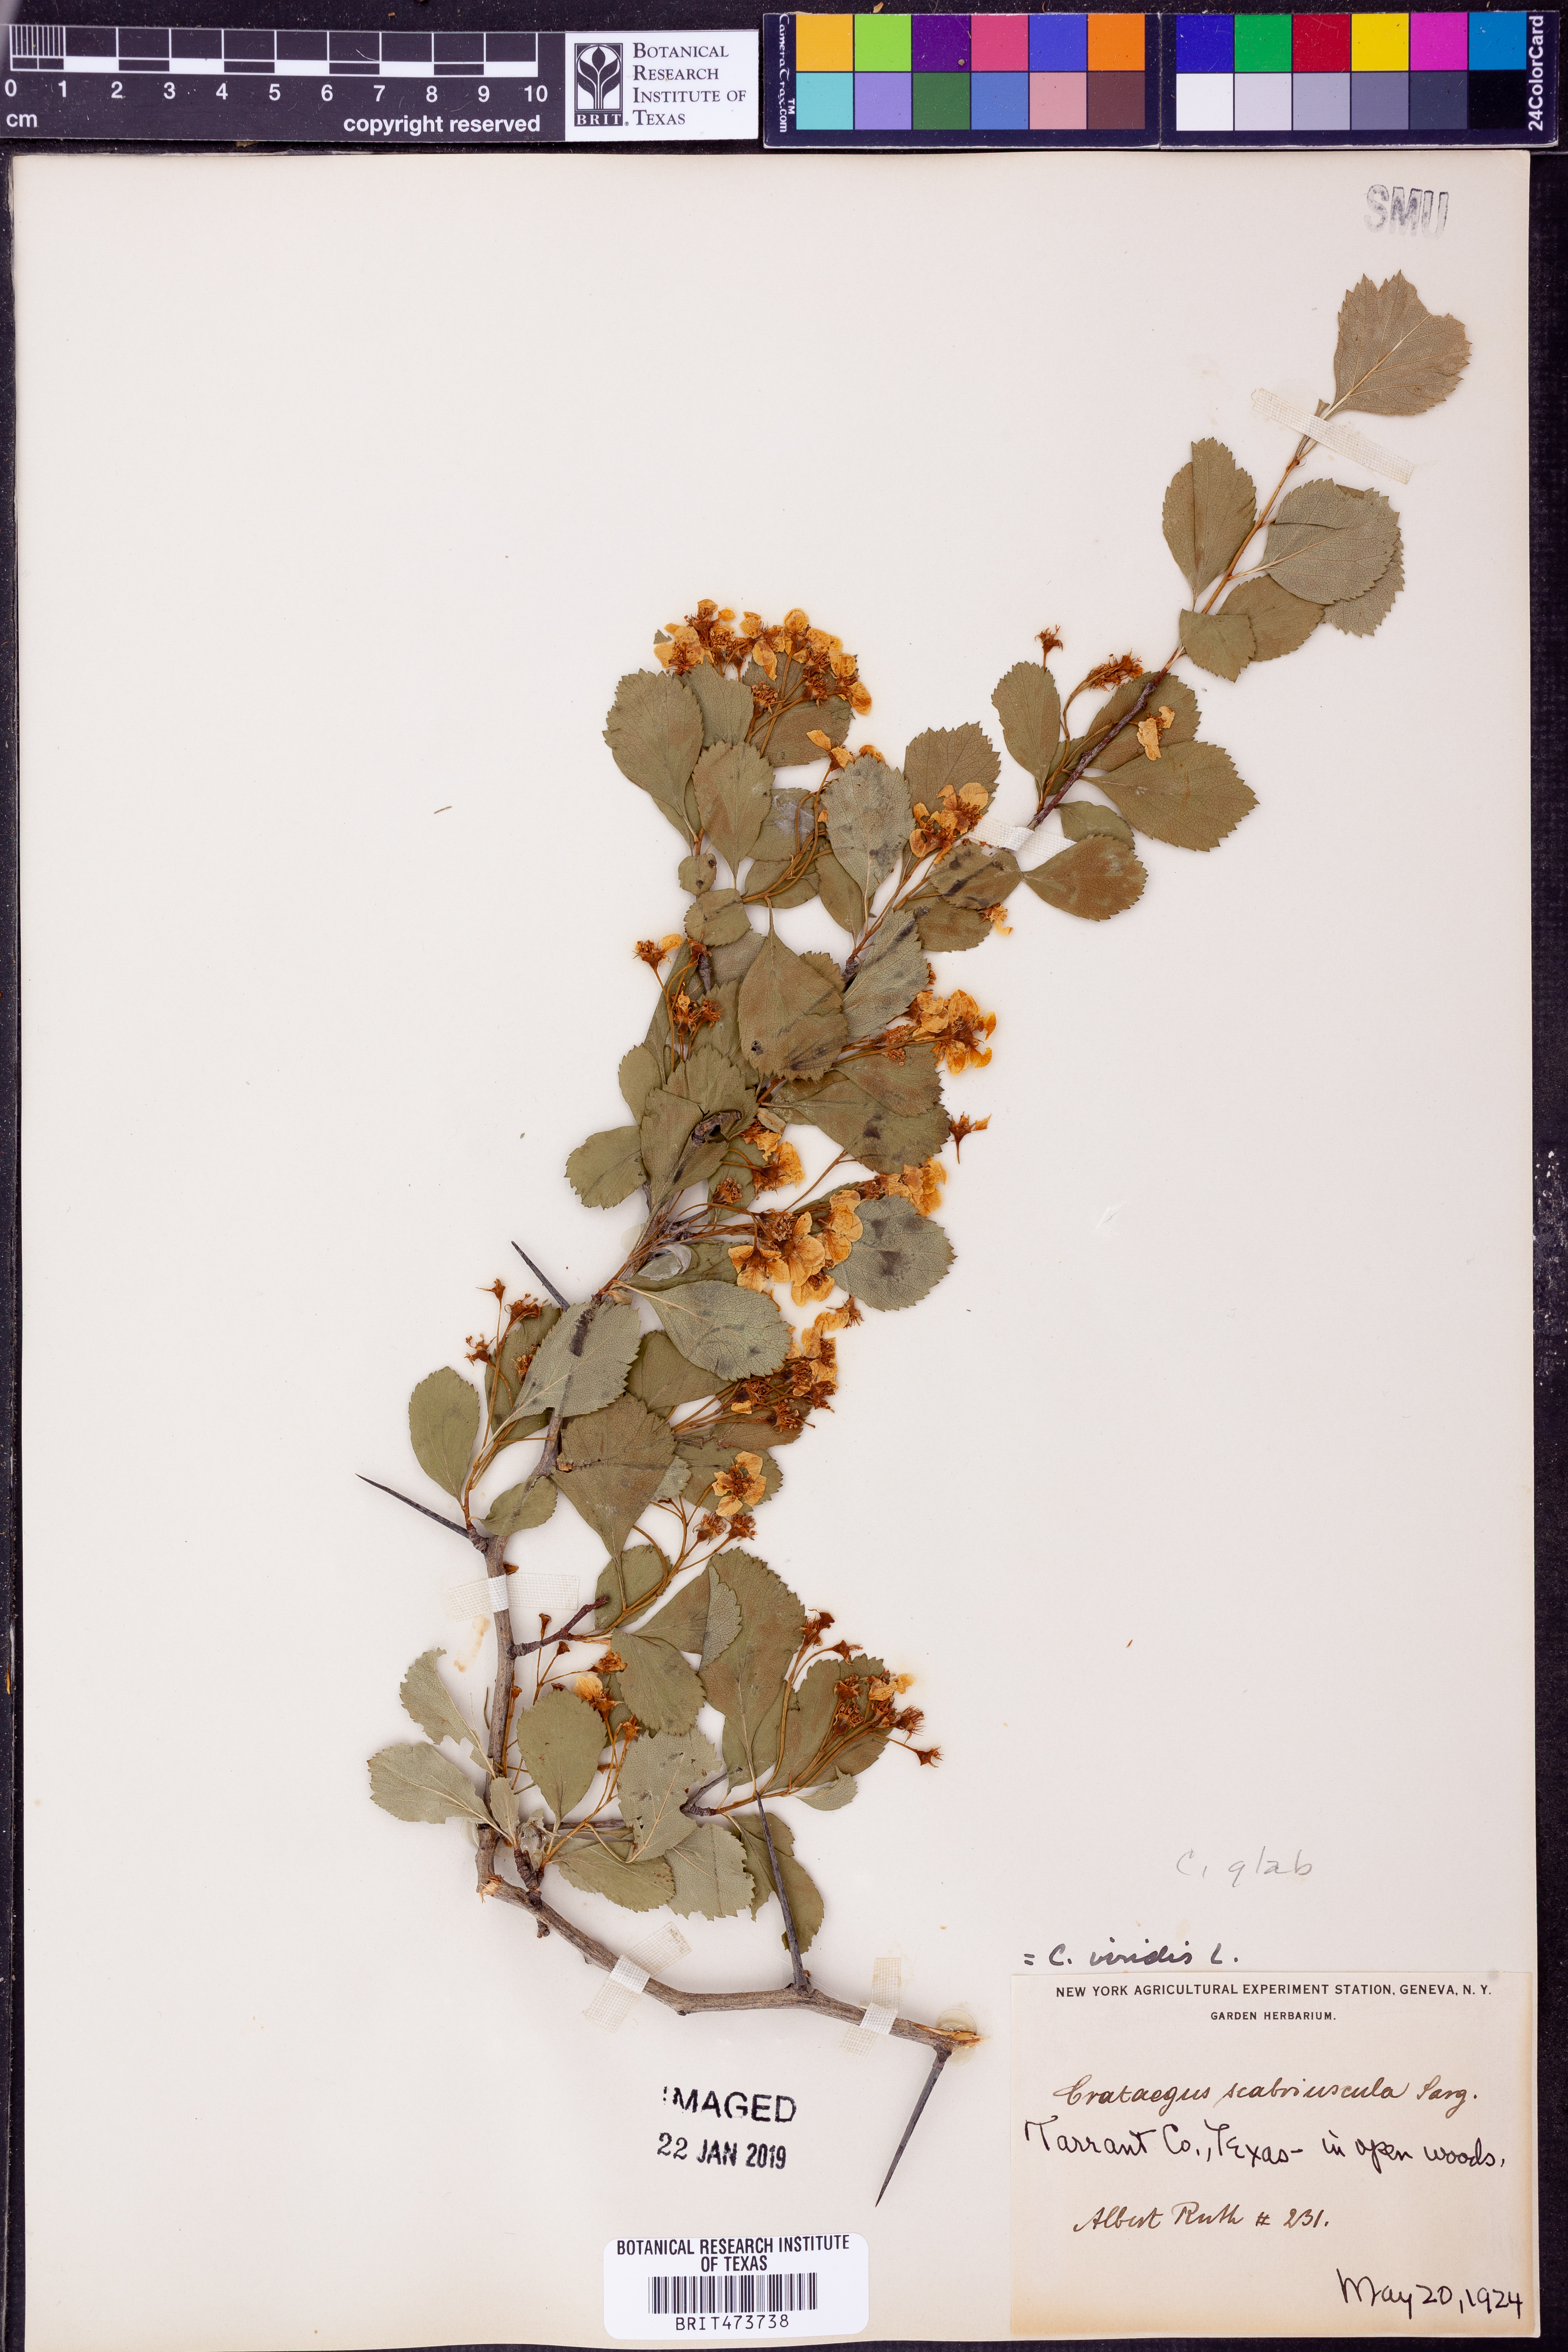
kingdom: Plantae
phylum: Tracheophyta
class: Magnoliopsida
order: Rosales
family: Rosaceae
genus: Crataegus
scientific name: Crataegus viridis
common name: Southernthorn
